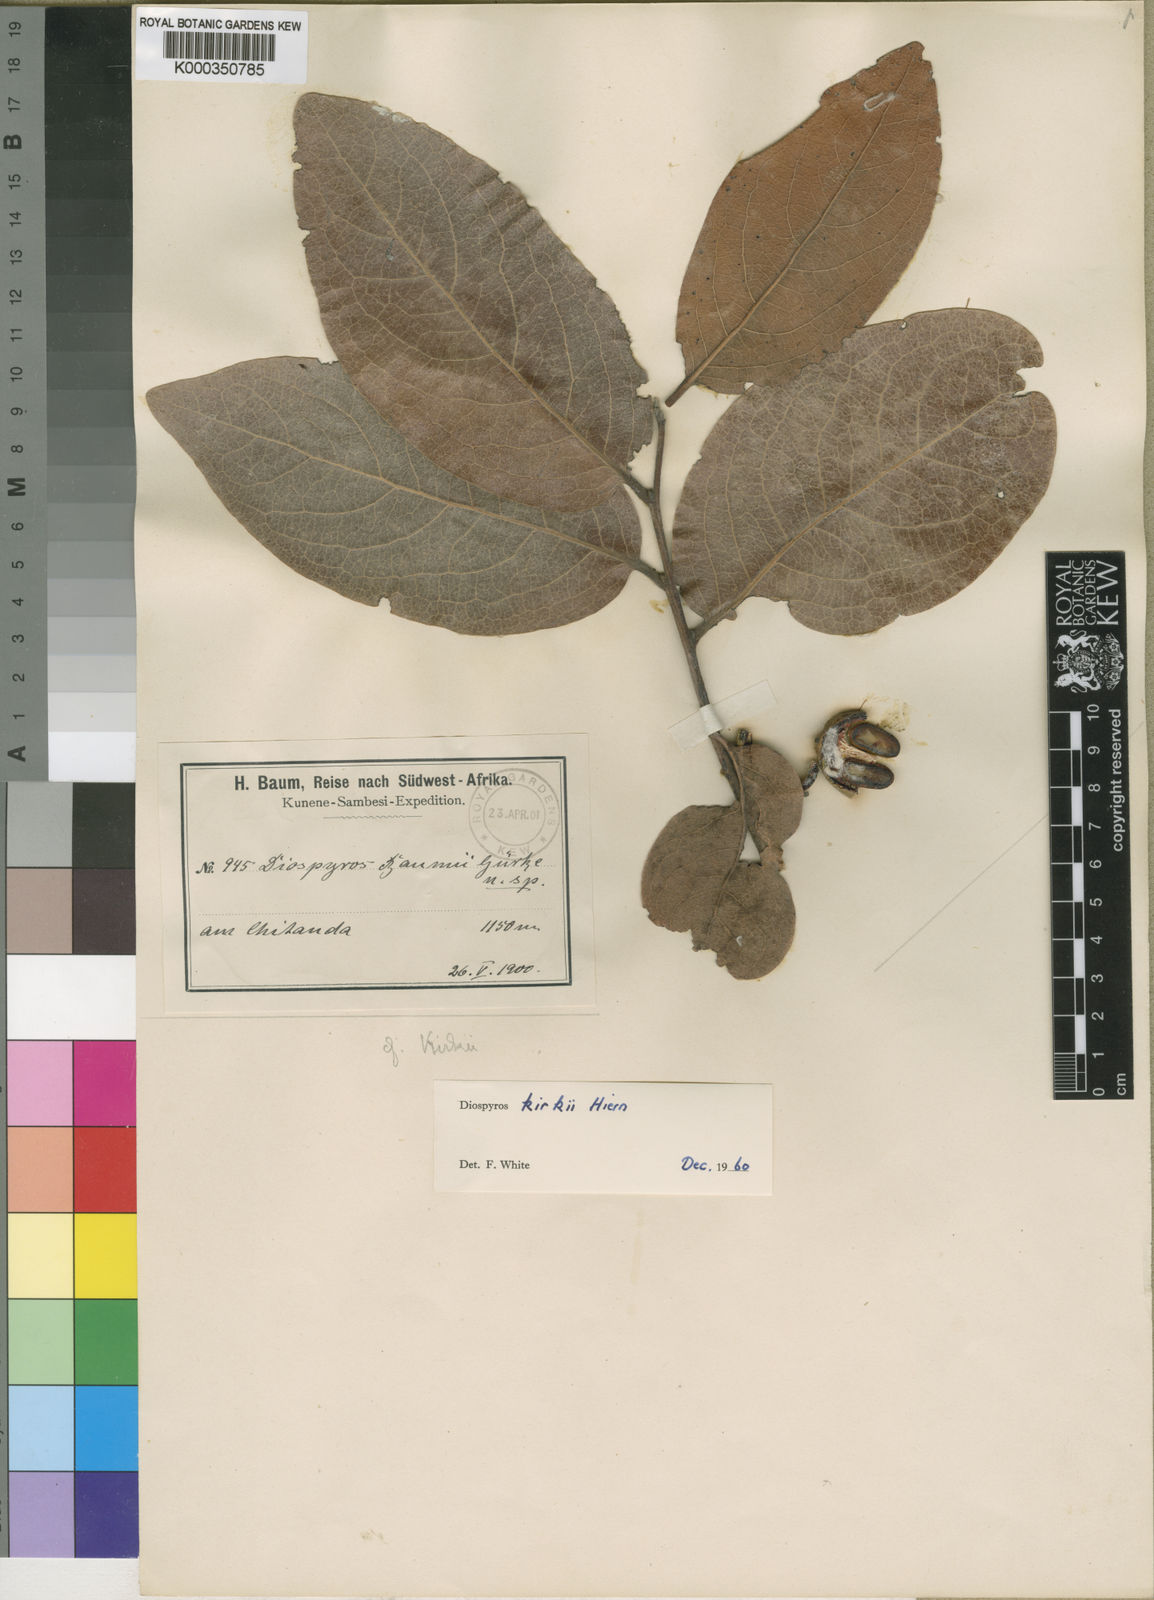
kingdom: Plantae
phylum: Tracheophyta
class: Magnoliopsida
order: Ericales
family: Ebenaceae
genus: Diospyros
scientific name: Diospyros kirkii
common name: Large-leaved jackal berry
